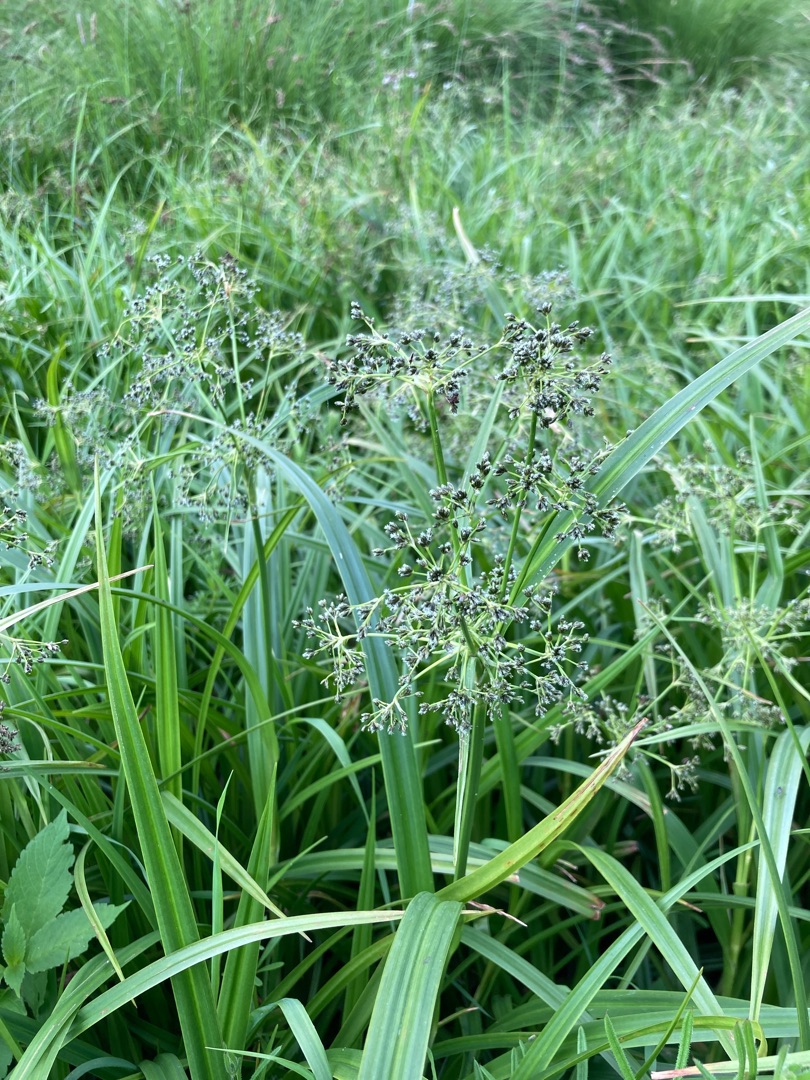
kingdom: Plantae
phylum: Tracheophyta
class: Liliopsida
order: Poales
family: Cyperaceae
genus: Scirpus
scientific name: Scirpus sylvaticus
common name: Skov-kogleaks
